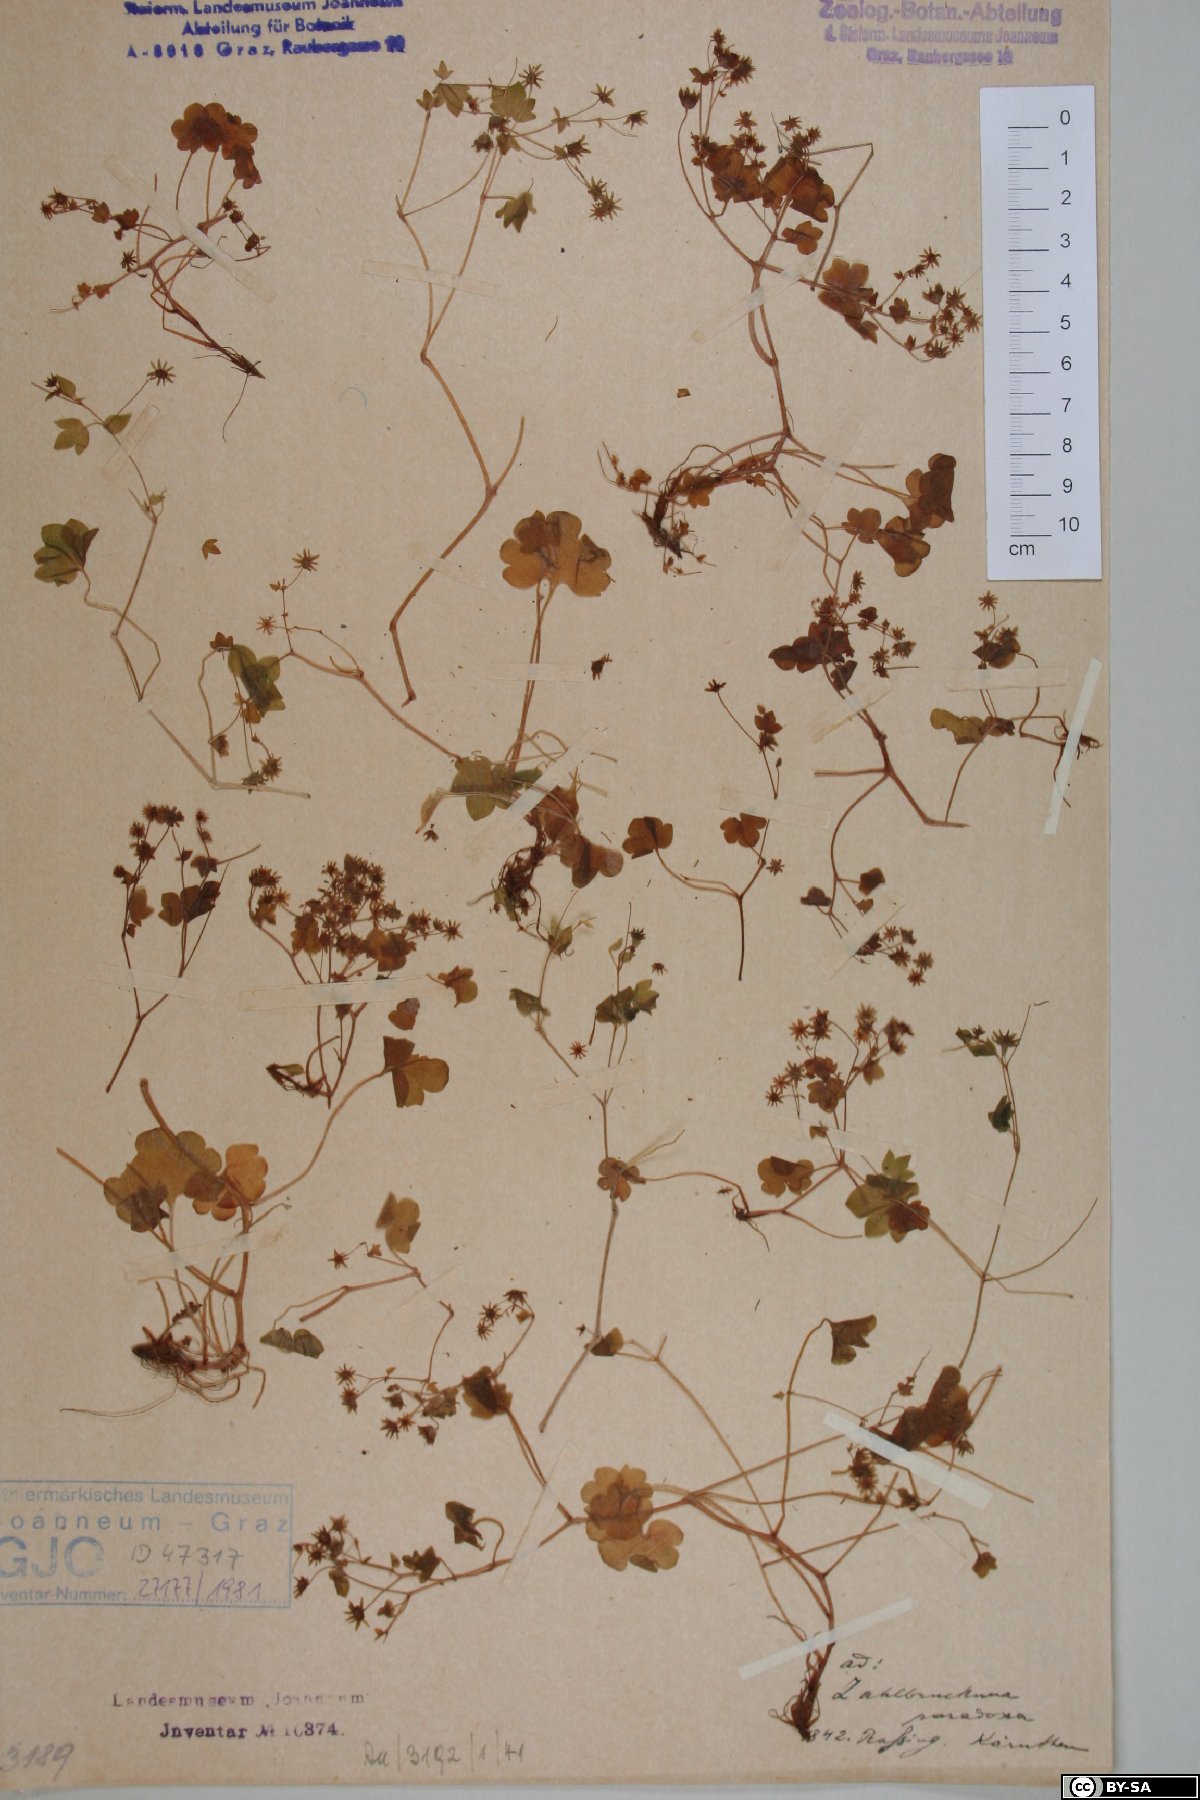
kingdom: Plantae
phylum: Tracheophyta
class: Magnoliopsida
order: Saxifragales
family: Saxifragaceae
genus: Saxifraga
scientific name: Saxifraga paradoxa
